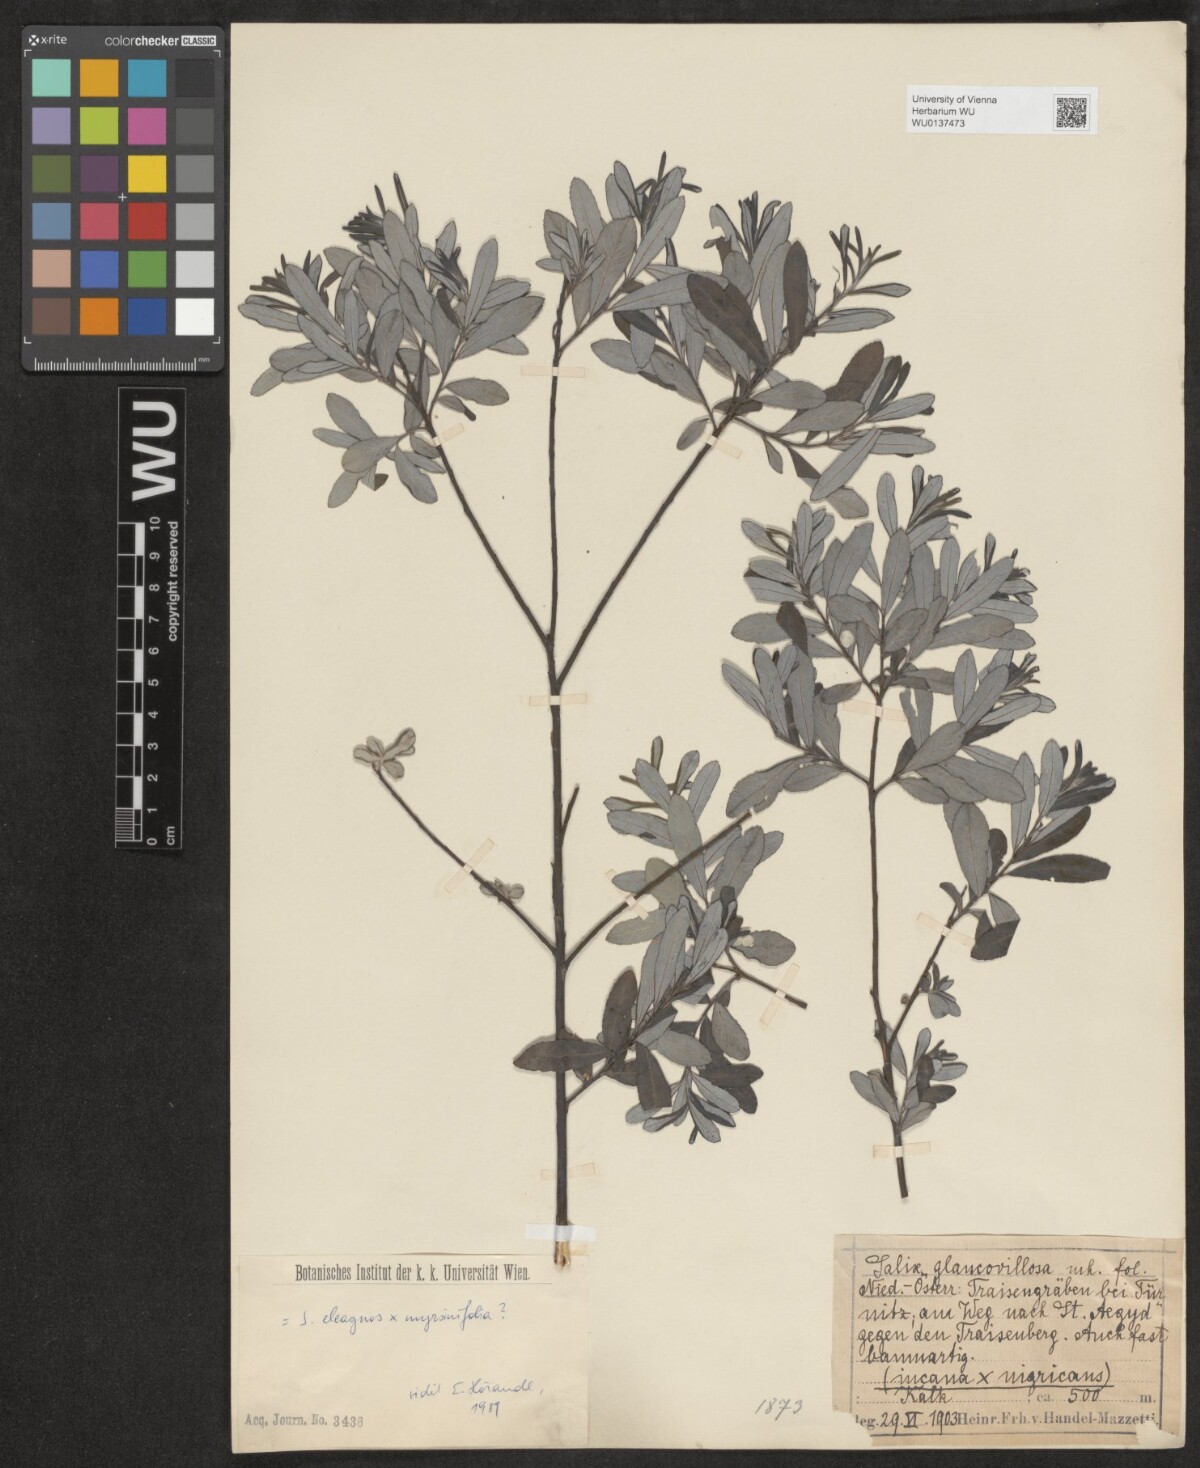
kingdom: Plantae
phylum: Tracheophyta
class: Magnoliopsida
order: Malpighiales
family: Salicaceae
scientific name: Salicaceae
